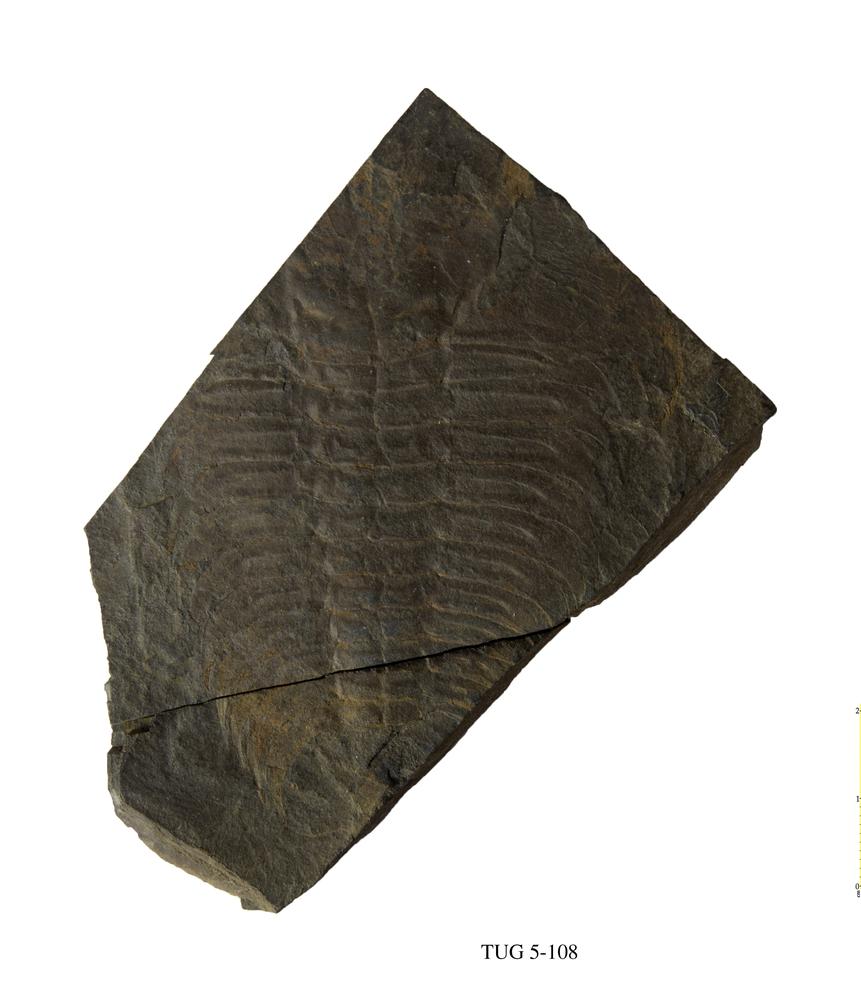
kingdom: Animalia
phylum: Arthropoda
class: Trilobita
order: Redlichiida
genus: Elliptocephala
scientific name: Elliptocephala asaphoides
